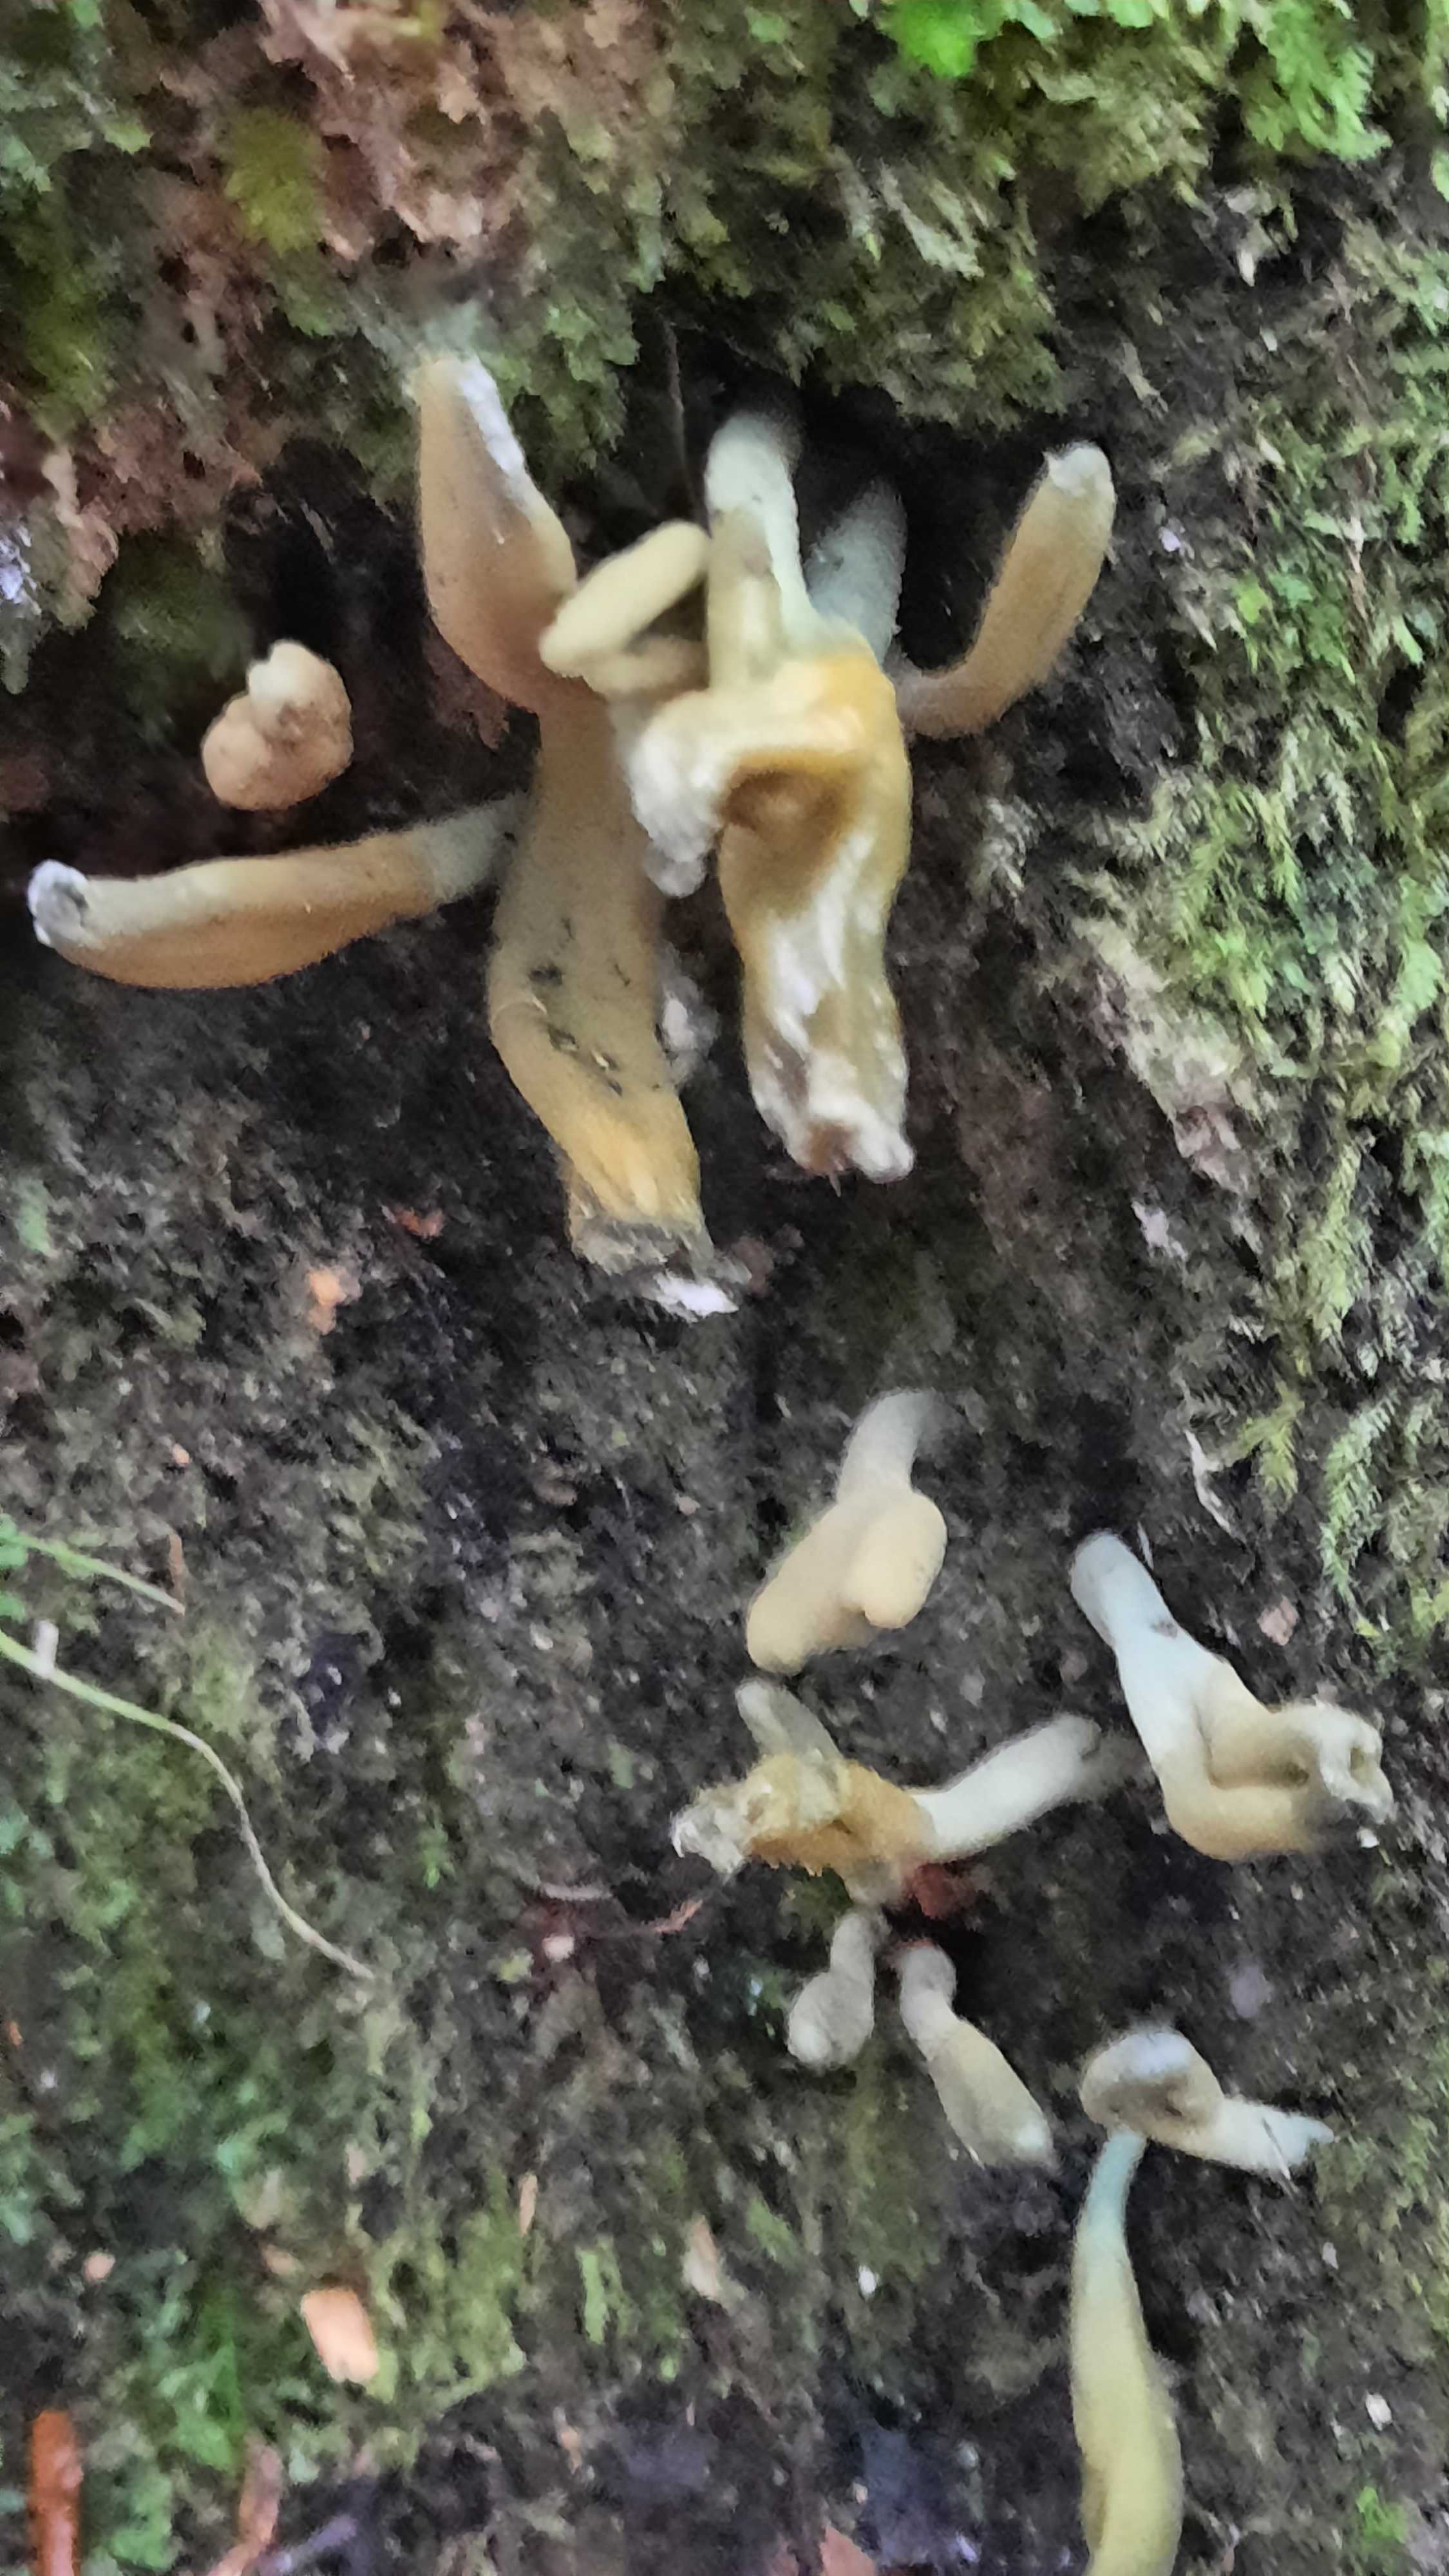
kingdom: Fungi
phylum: Ascomycota
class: Leotiomycetes
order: Leotiales
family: Leotiaceae
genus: Microglossum
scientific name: Microglossum griseoviride
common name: grågrøn farvetunge
